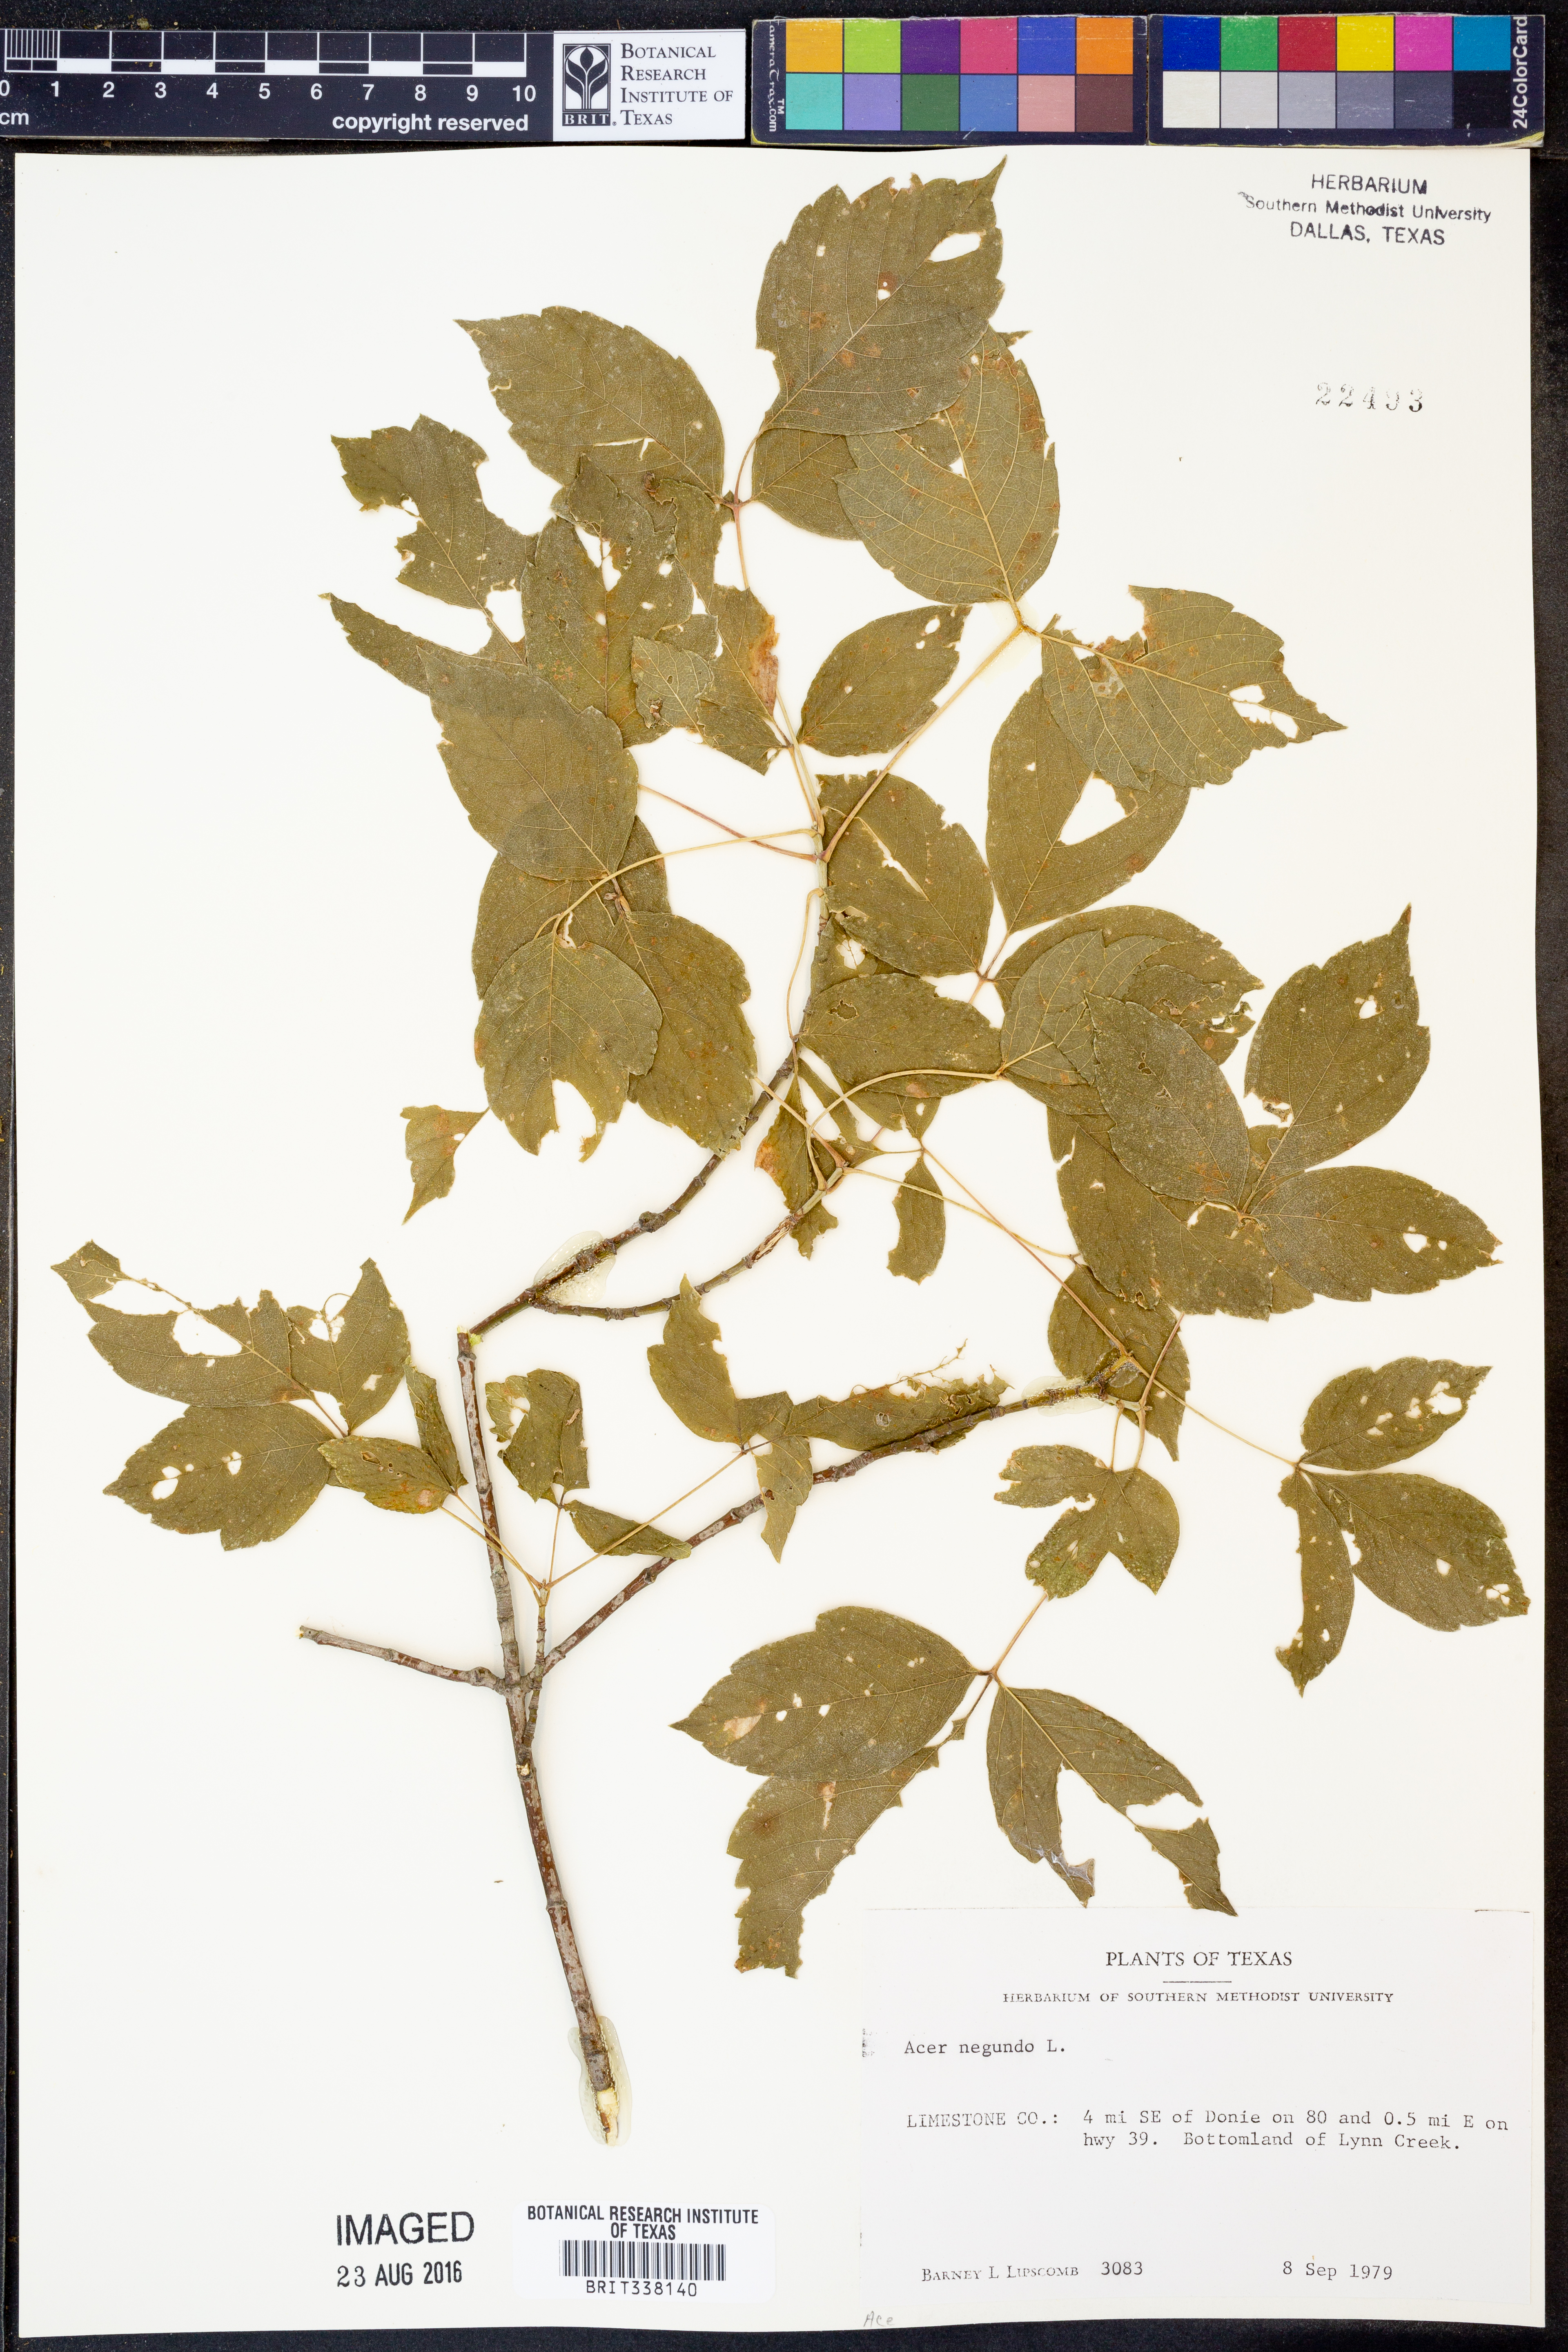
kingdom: Plantae
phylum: Tracheophyta
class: Magnoliopsida
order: Sapindales
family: Sapindaceae
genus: Acer
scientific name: Acer negundo
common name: Ashleaf maple
